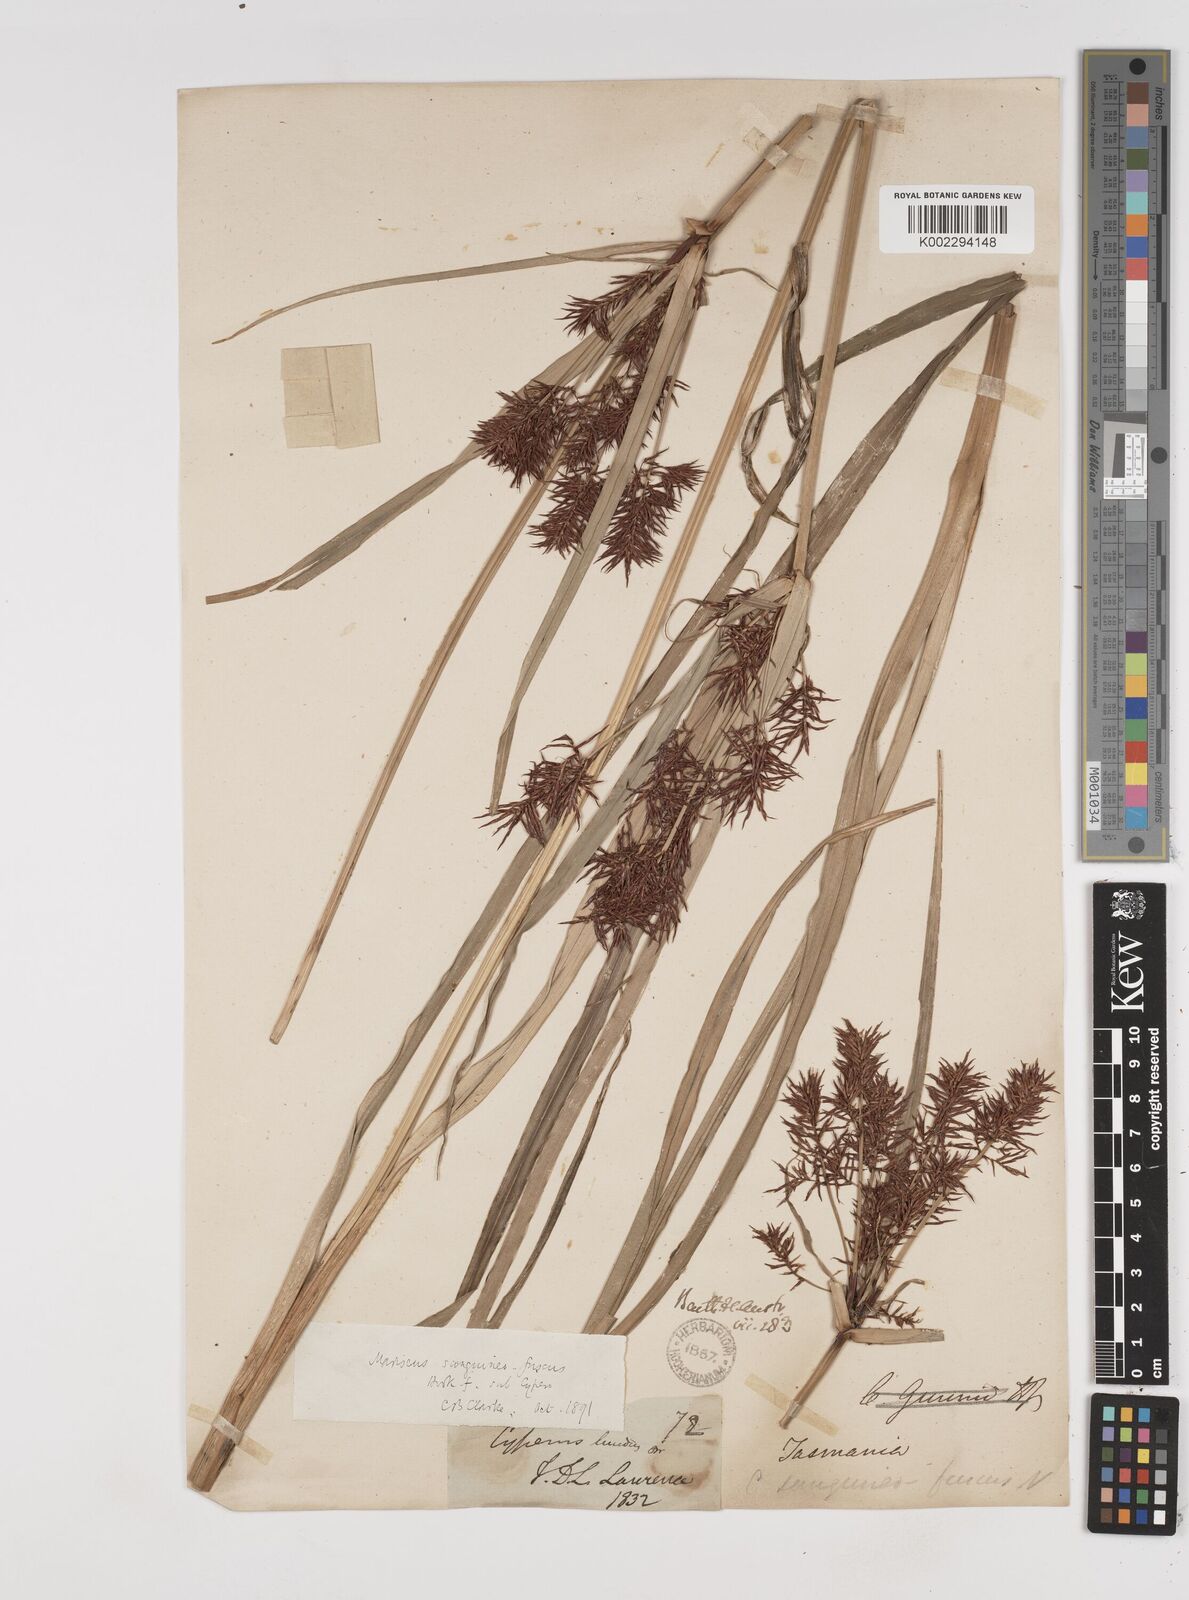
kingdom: Plantae
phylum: Tracheophyta
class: Liliopsida
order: Poales
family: Cyperaceae
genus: Cyperus
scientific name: Cyperus lucidus
